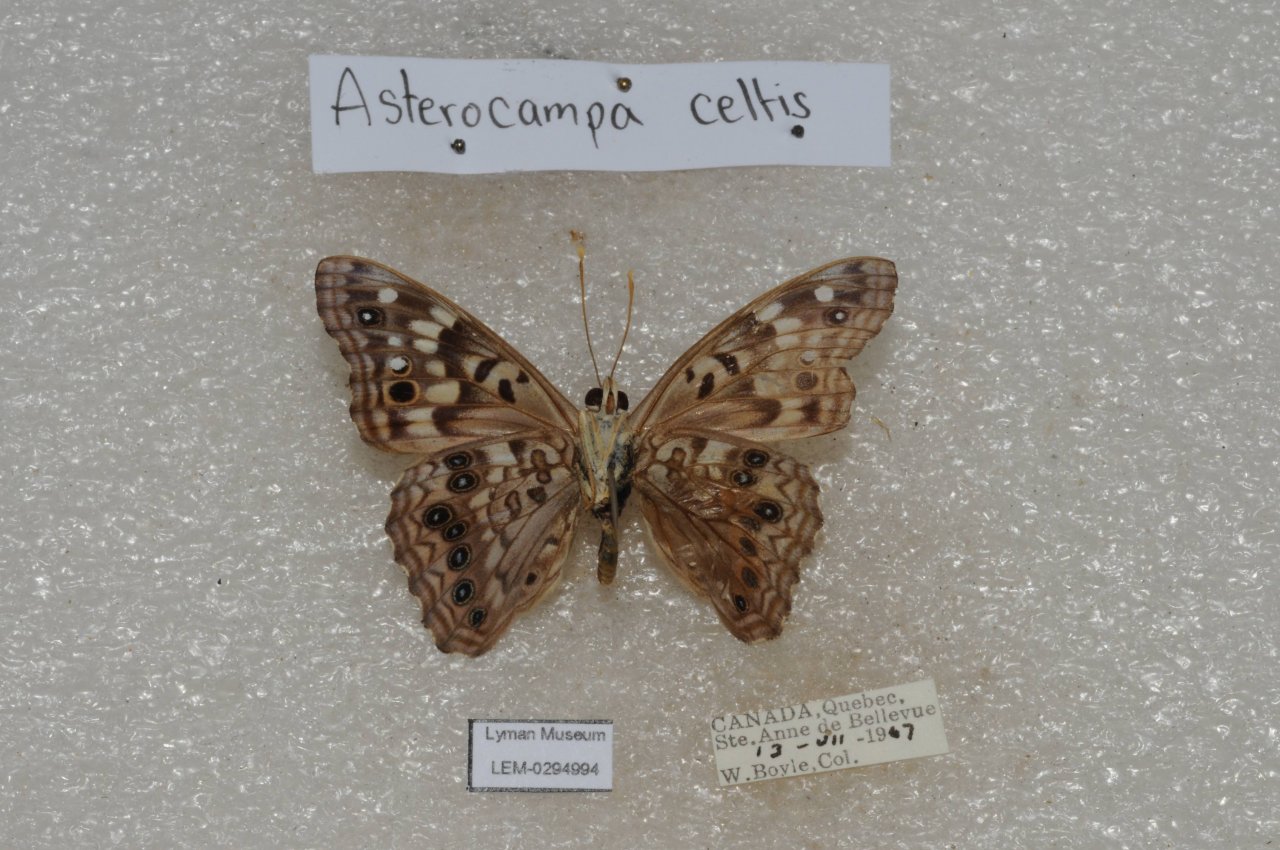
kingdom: Animalia
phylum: Arthropoda
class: Insecta
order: Lepidoptera
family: Nymphalidae
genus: Asterocampa
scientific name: Asterocampa celtis
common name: Hackberry Emperor
